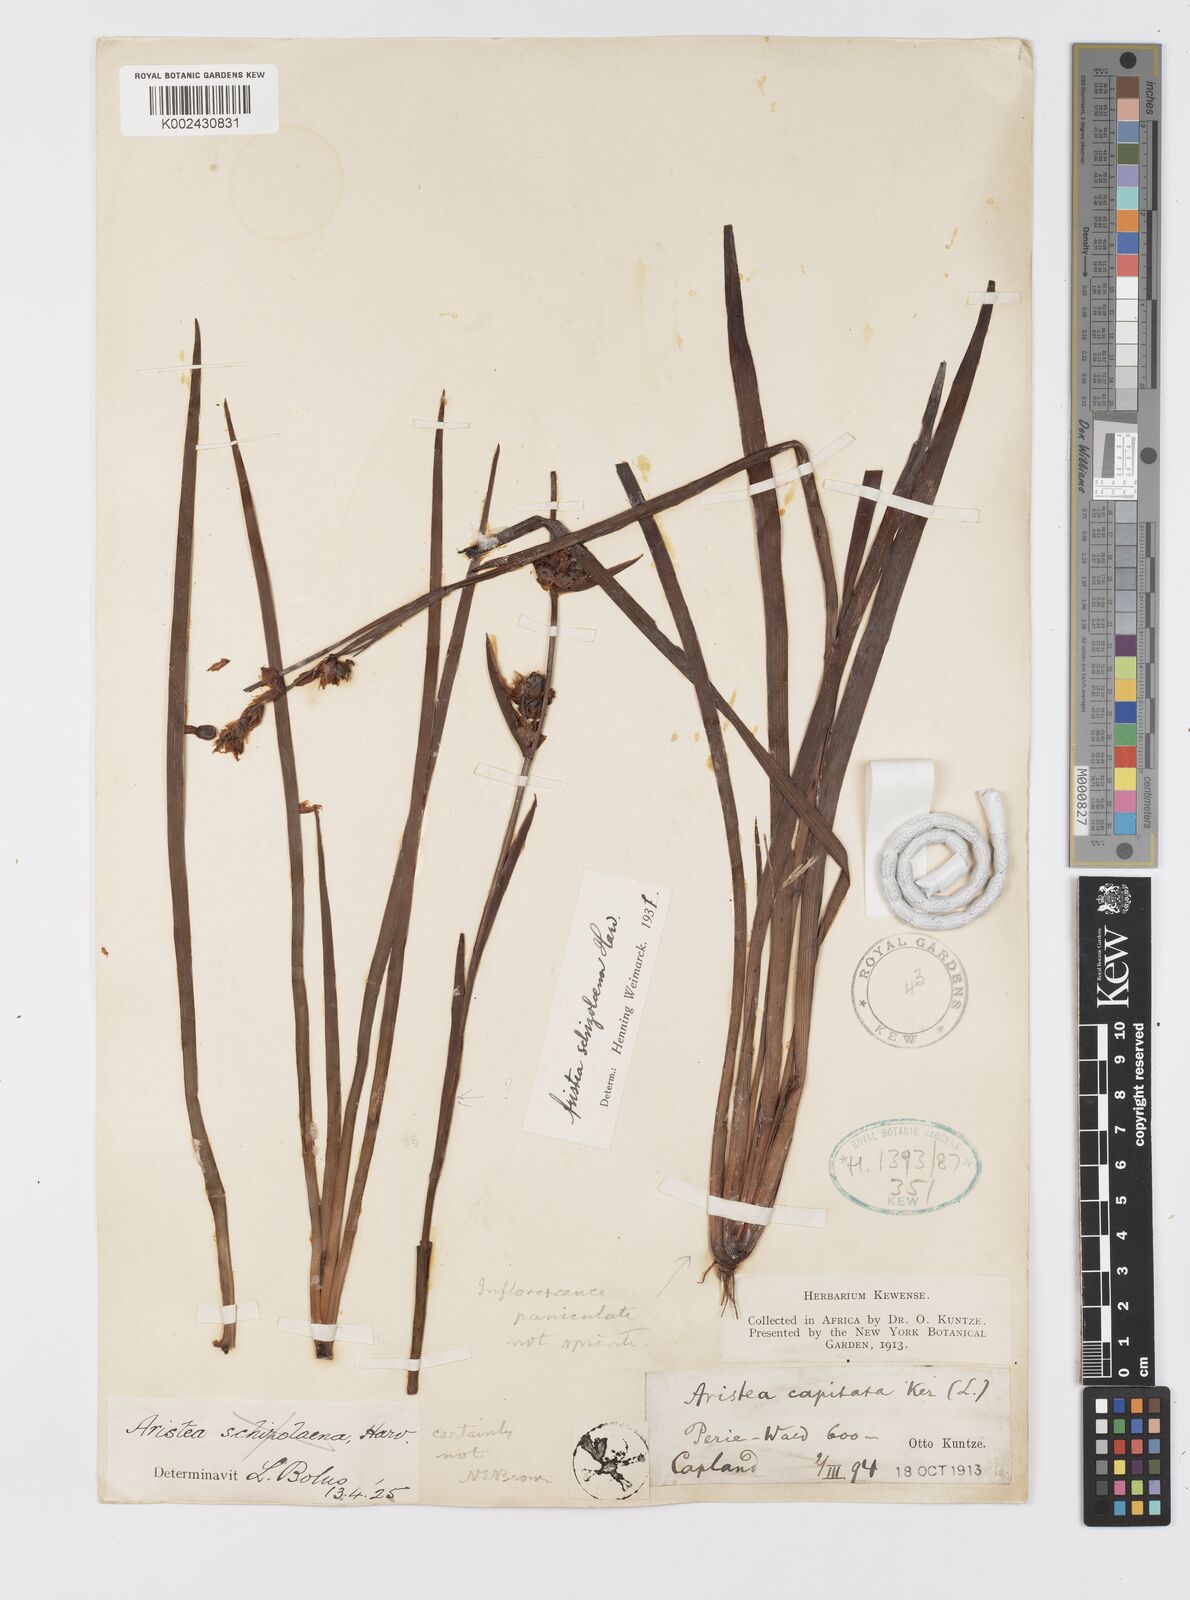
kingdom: Plantae
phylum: Tracheophyta
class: Liliopsida
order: Asparagales
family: Iridaceae
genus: Aristea
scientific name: Aristea schizolaena
